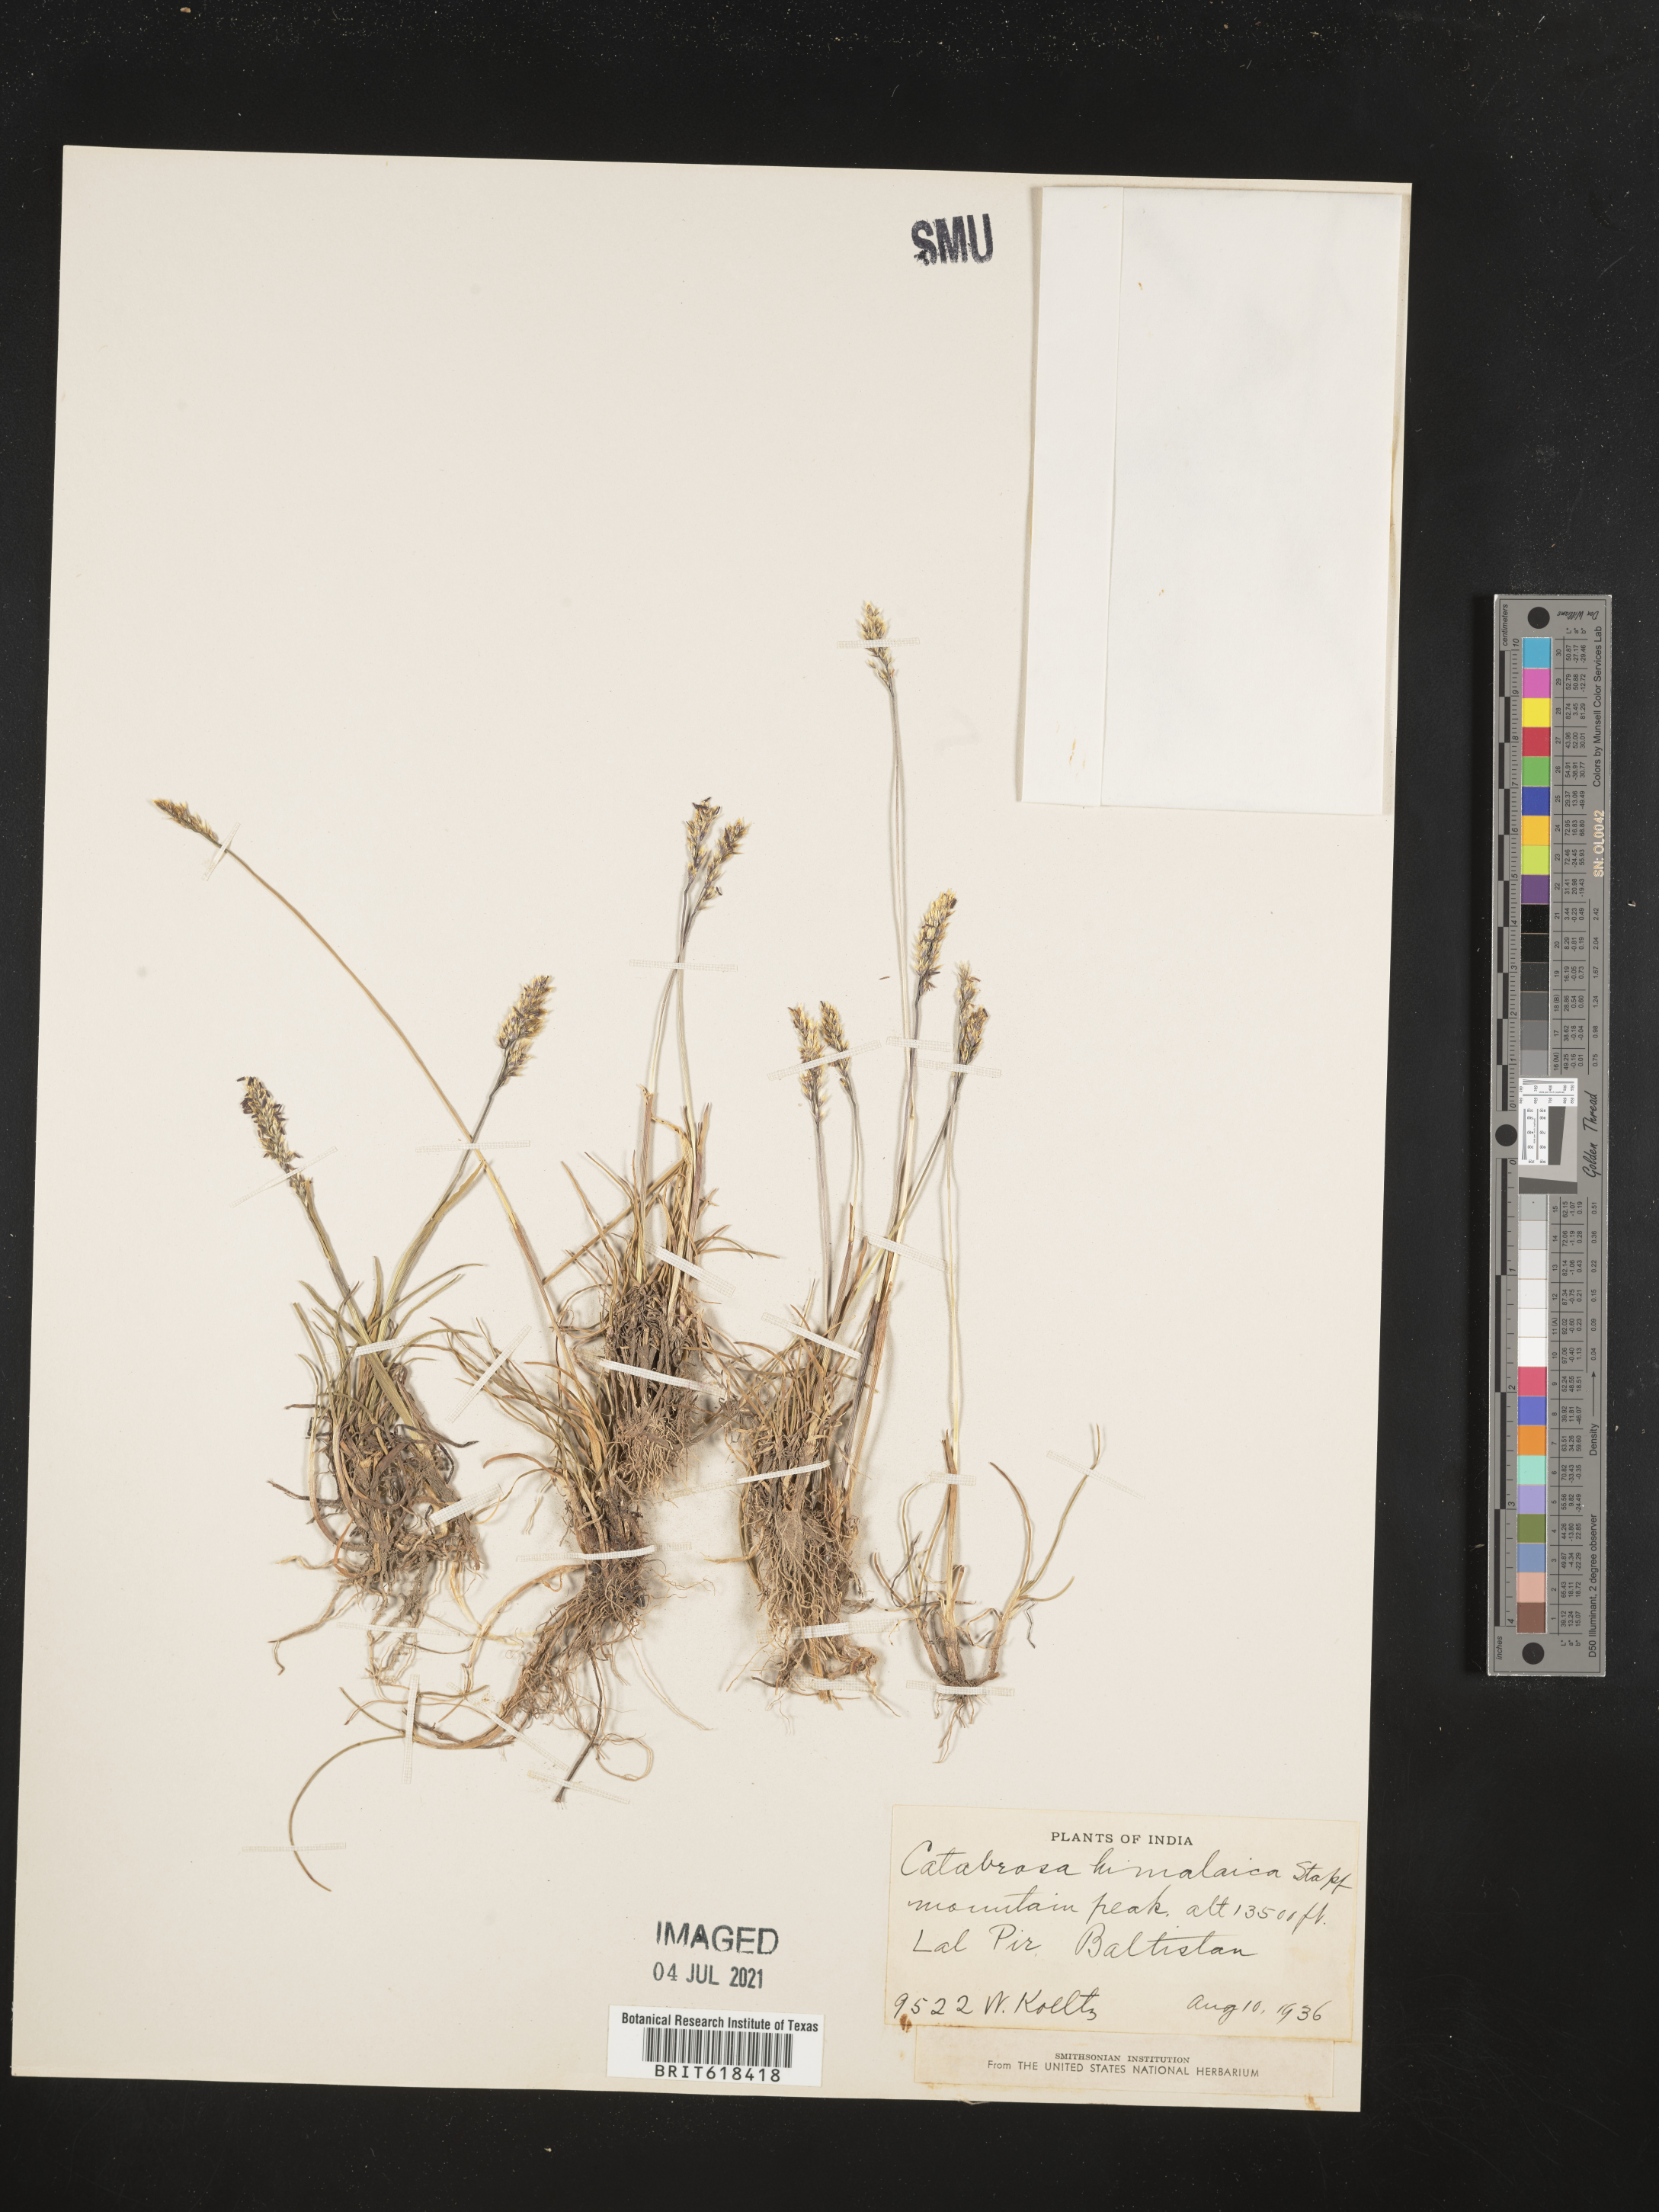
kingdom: Plantae
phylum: Tracheophyta
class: Liliopsida
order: Poales
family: Poaceae
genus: Catabrosella
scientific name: Catabrosella himalaica
